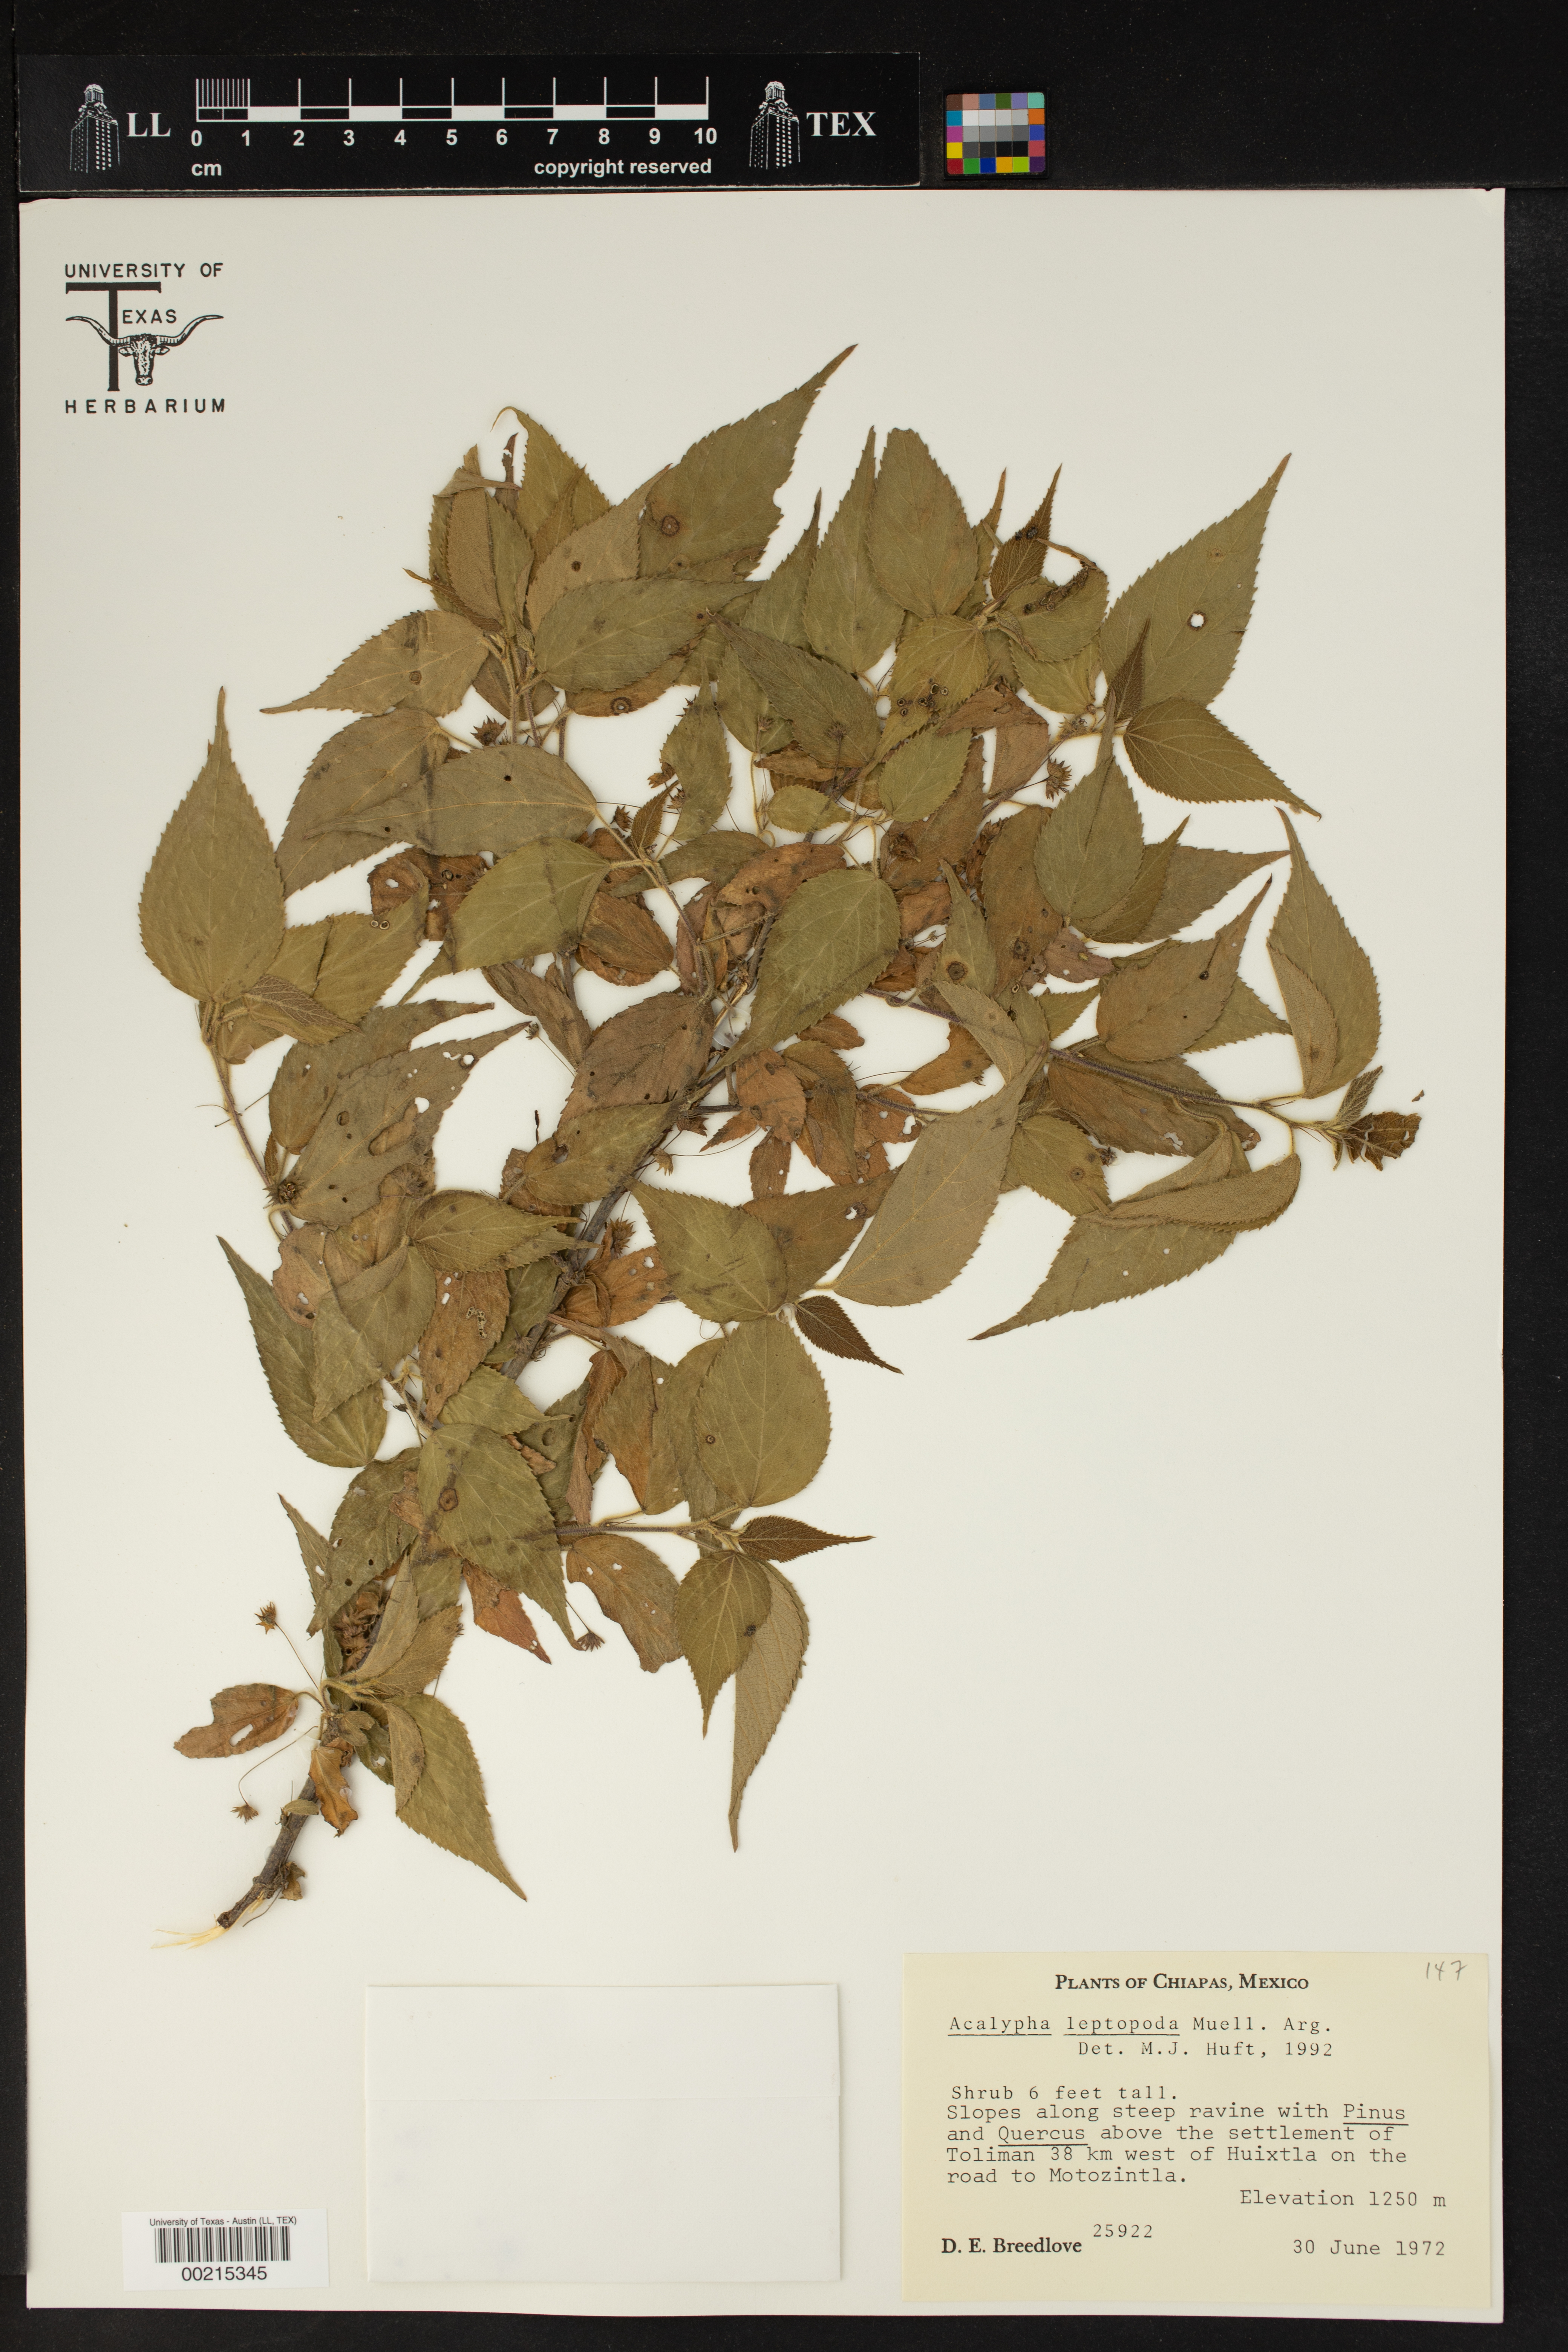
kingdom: Plantae
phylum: Tracheophyta
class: Magnoliopsida
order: Malpighiales
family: Euphorbiaceae
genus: Acalypha
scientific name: Acalypha leptopoda
